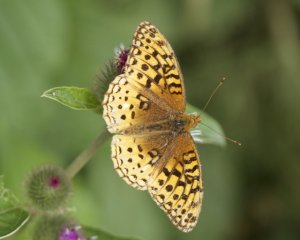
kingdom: Animalia
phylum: Arthropoda
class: Insecta
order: Lepidoptera
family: Nymphalidae
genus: Speyeria
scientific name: Speyeria cybele
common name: Great Spangled Fritillary
